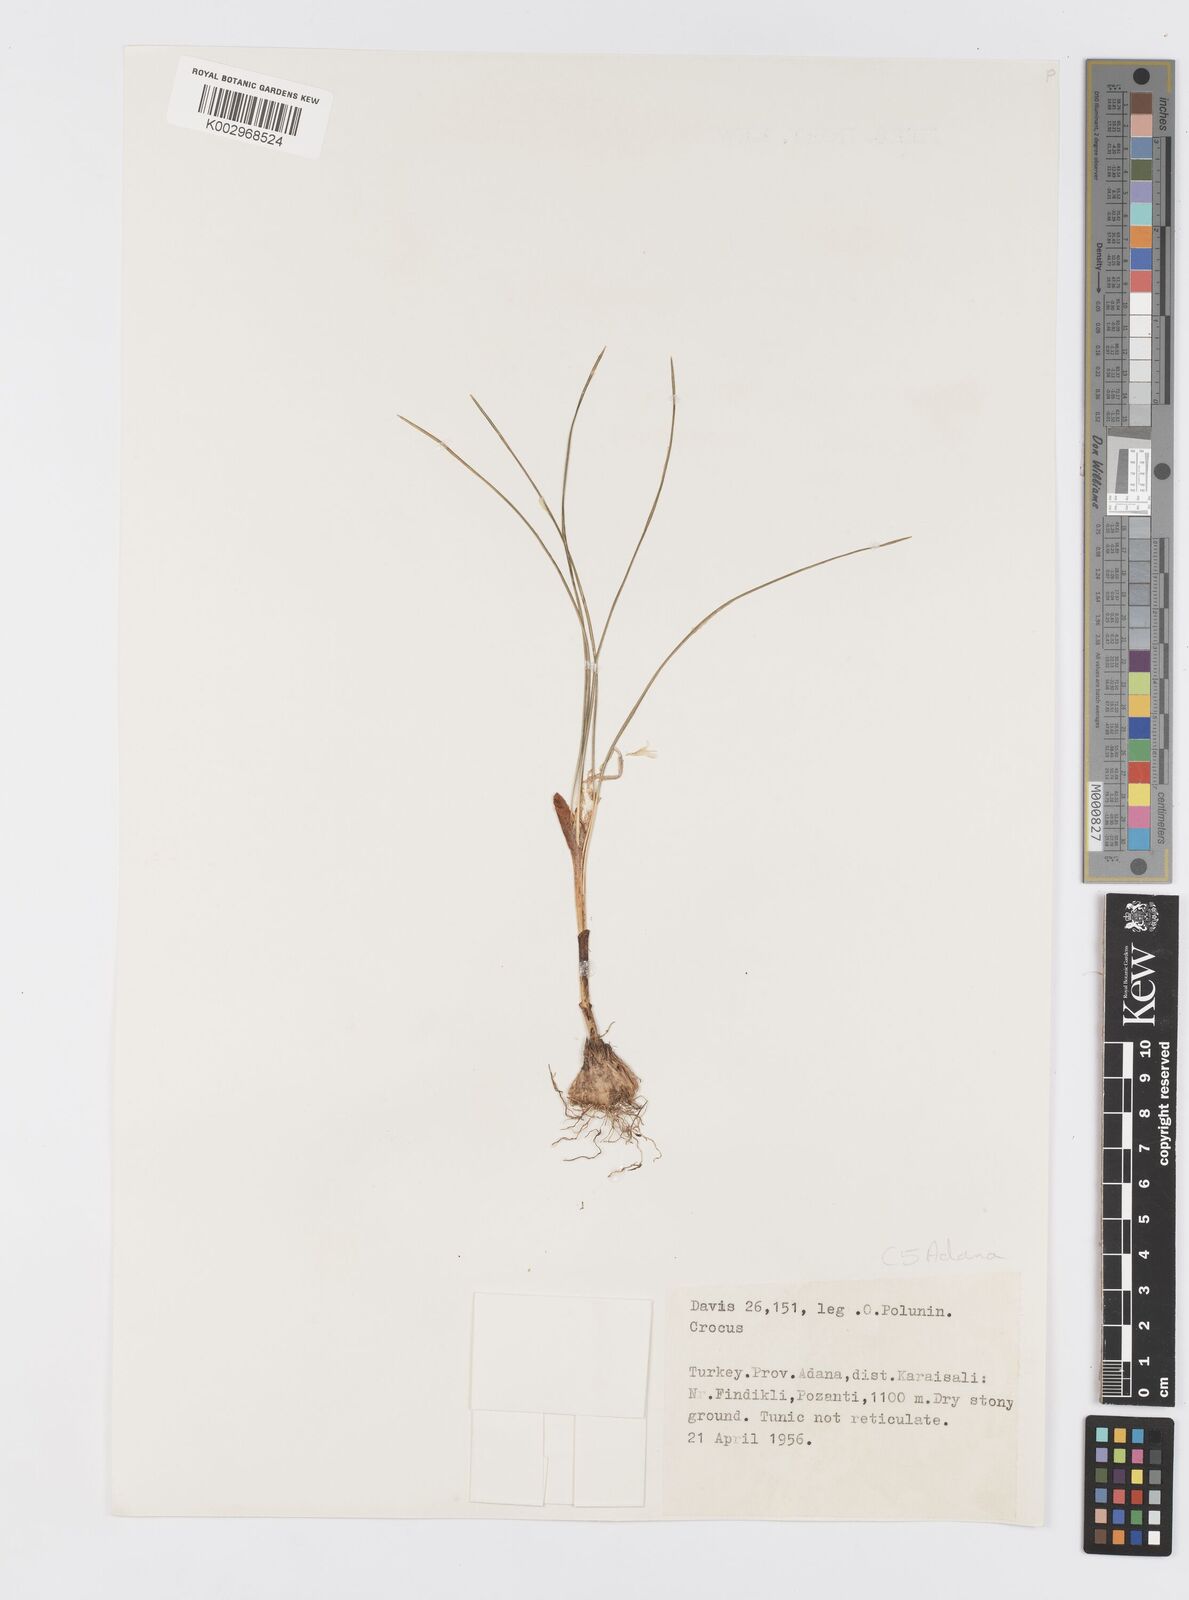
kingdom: Plantae
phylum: Tracheophyta
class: Liliopsida
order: Asparagales
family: Iridaceae
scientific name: Iridaceae
